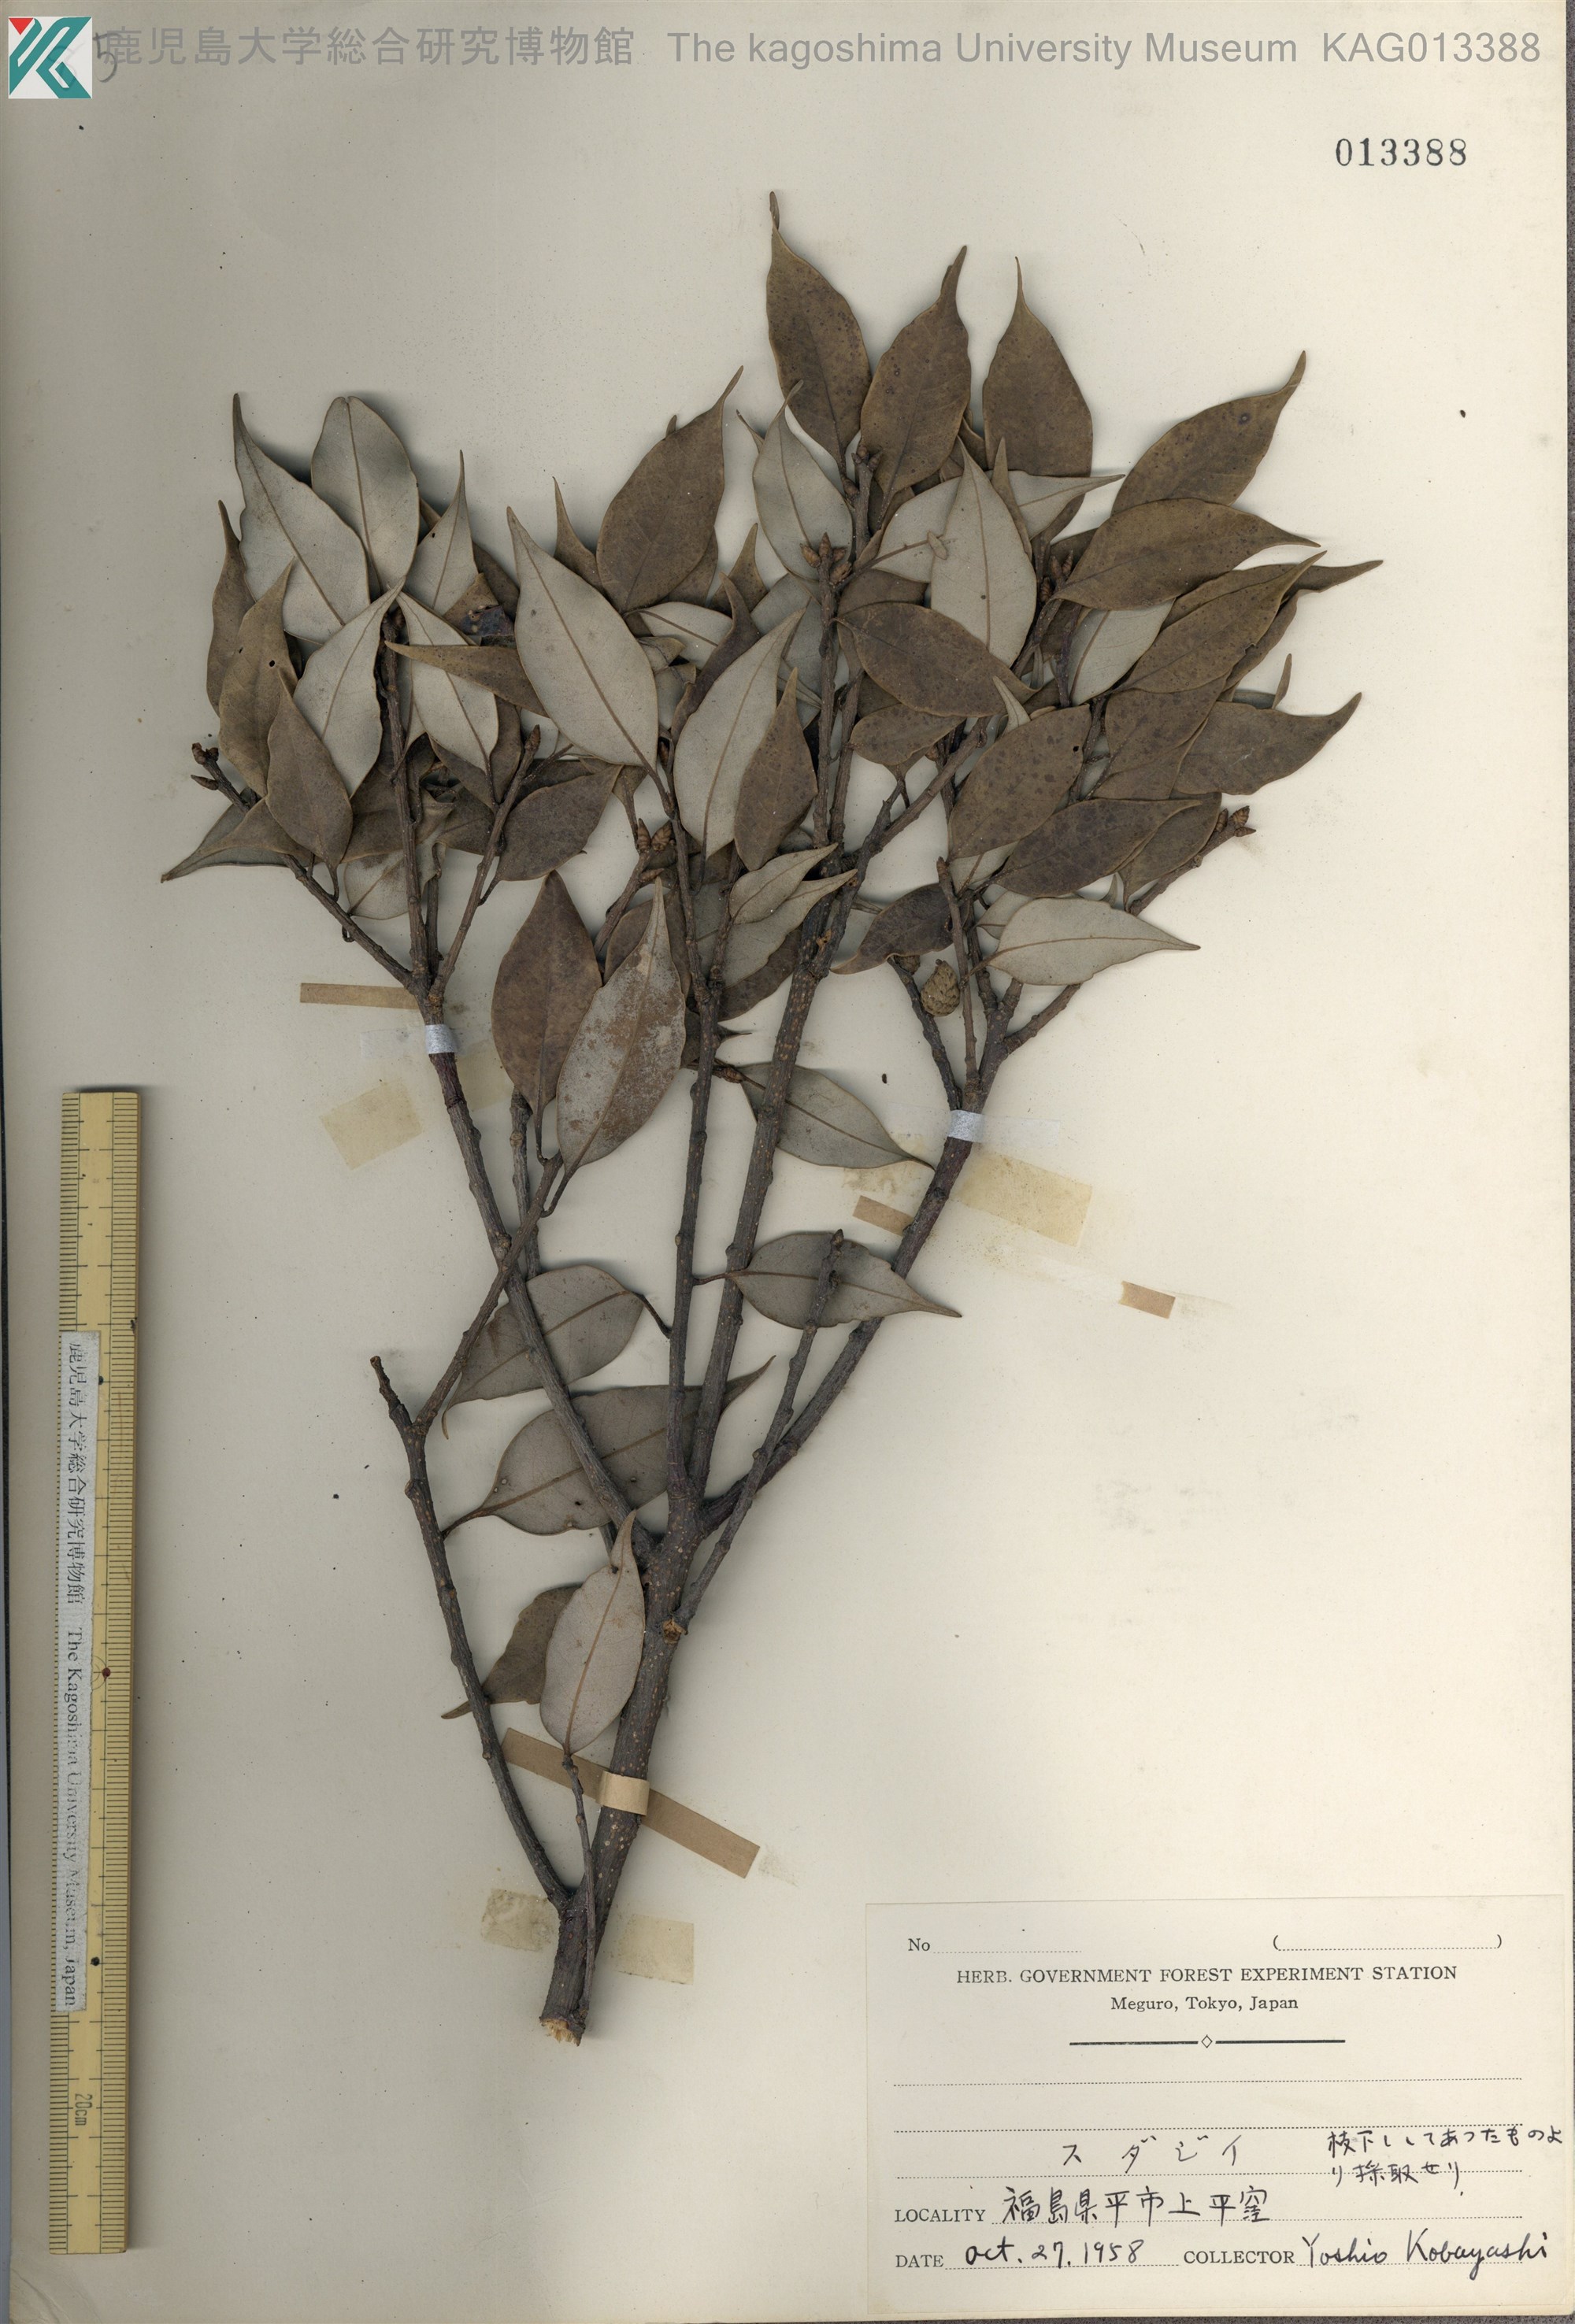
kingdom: Plantae
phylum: Tracheophyta
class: Magnoliopsida
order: Fagales
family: Fagaceae
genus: Castanopsis
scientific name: Castanopsis sieboldii
